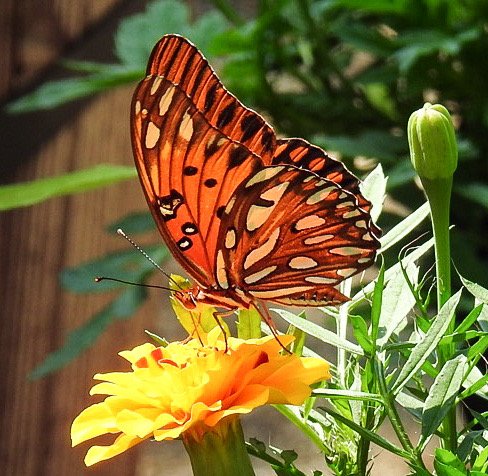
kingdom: Animalia
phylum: Arthropoda
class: Insecta
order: Lepidoptera
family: Nymphalidae
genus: Dione
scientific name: Dione vanillae
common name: Gulf Fritillary
